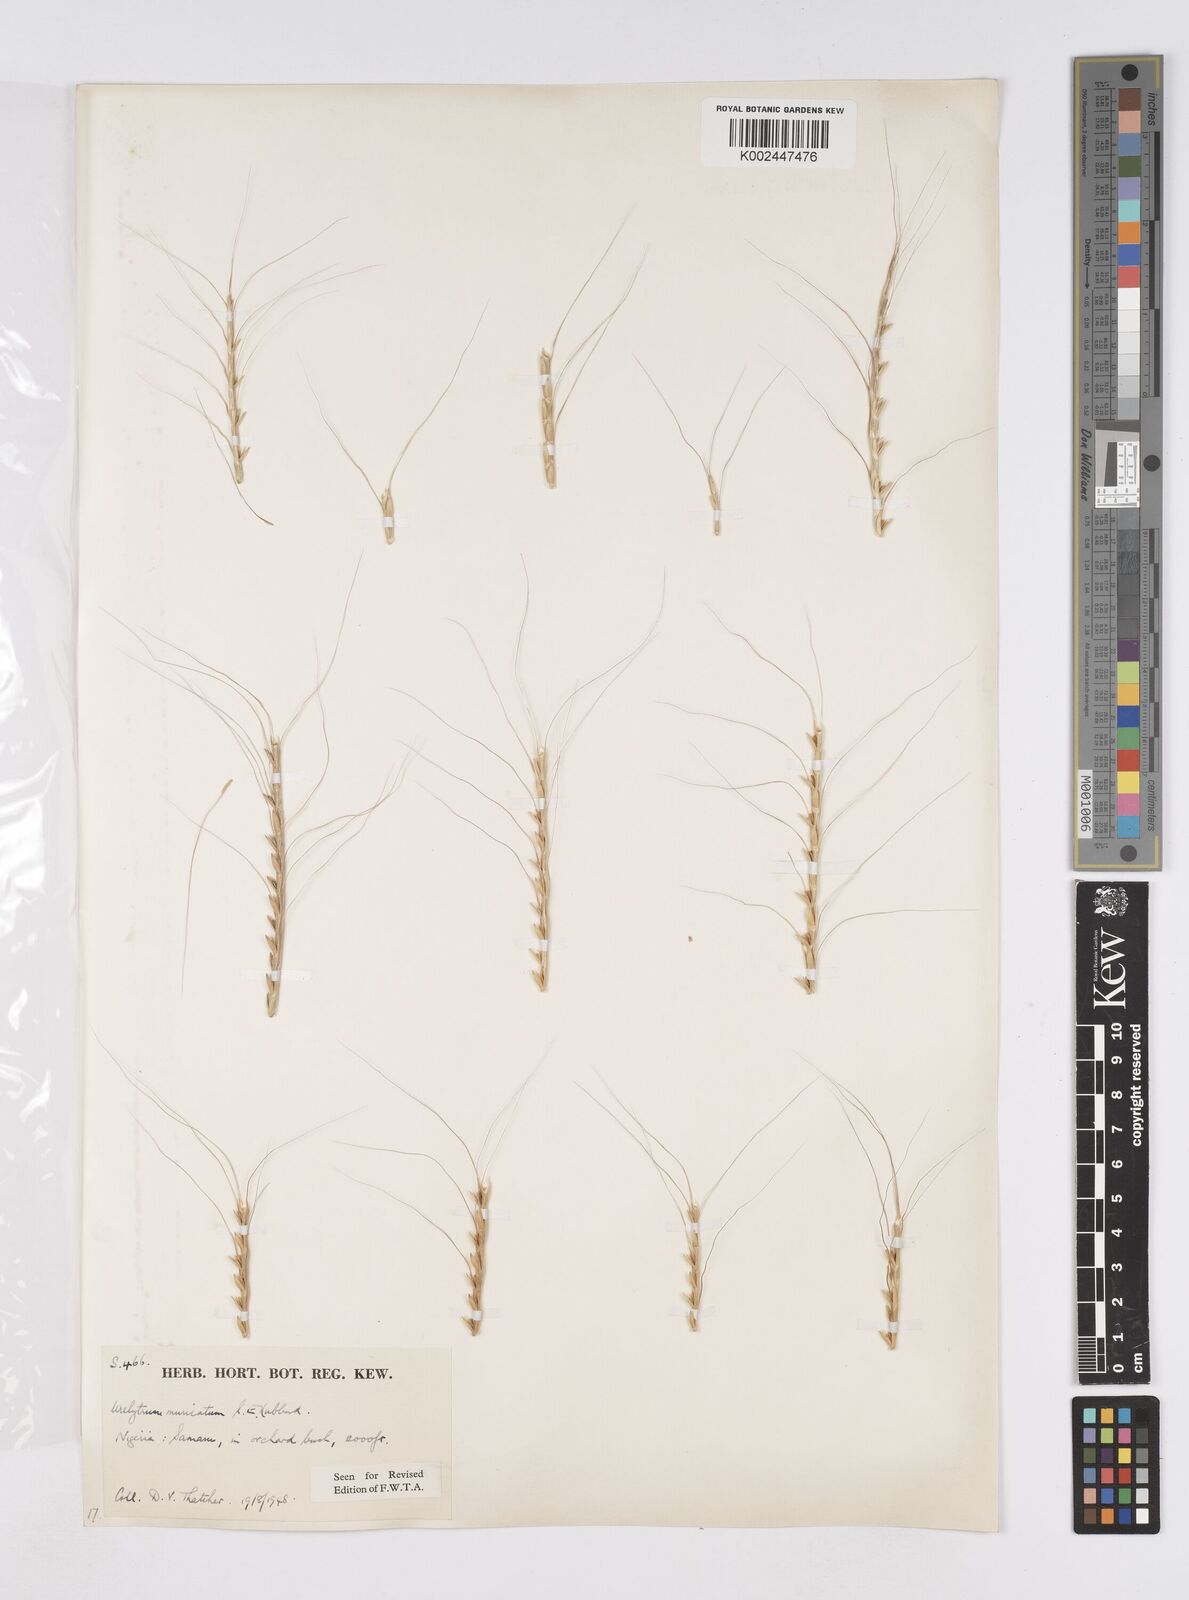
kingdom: Plantae
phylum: Tracheophyta
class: Liliopsida
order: Poales
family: Poaceae
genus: Urelytrum
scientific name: Urelytrum muricatum
